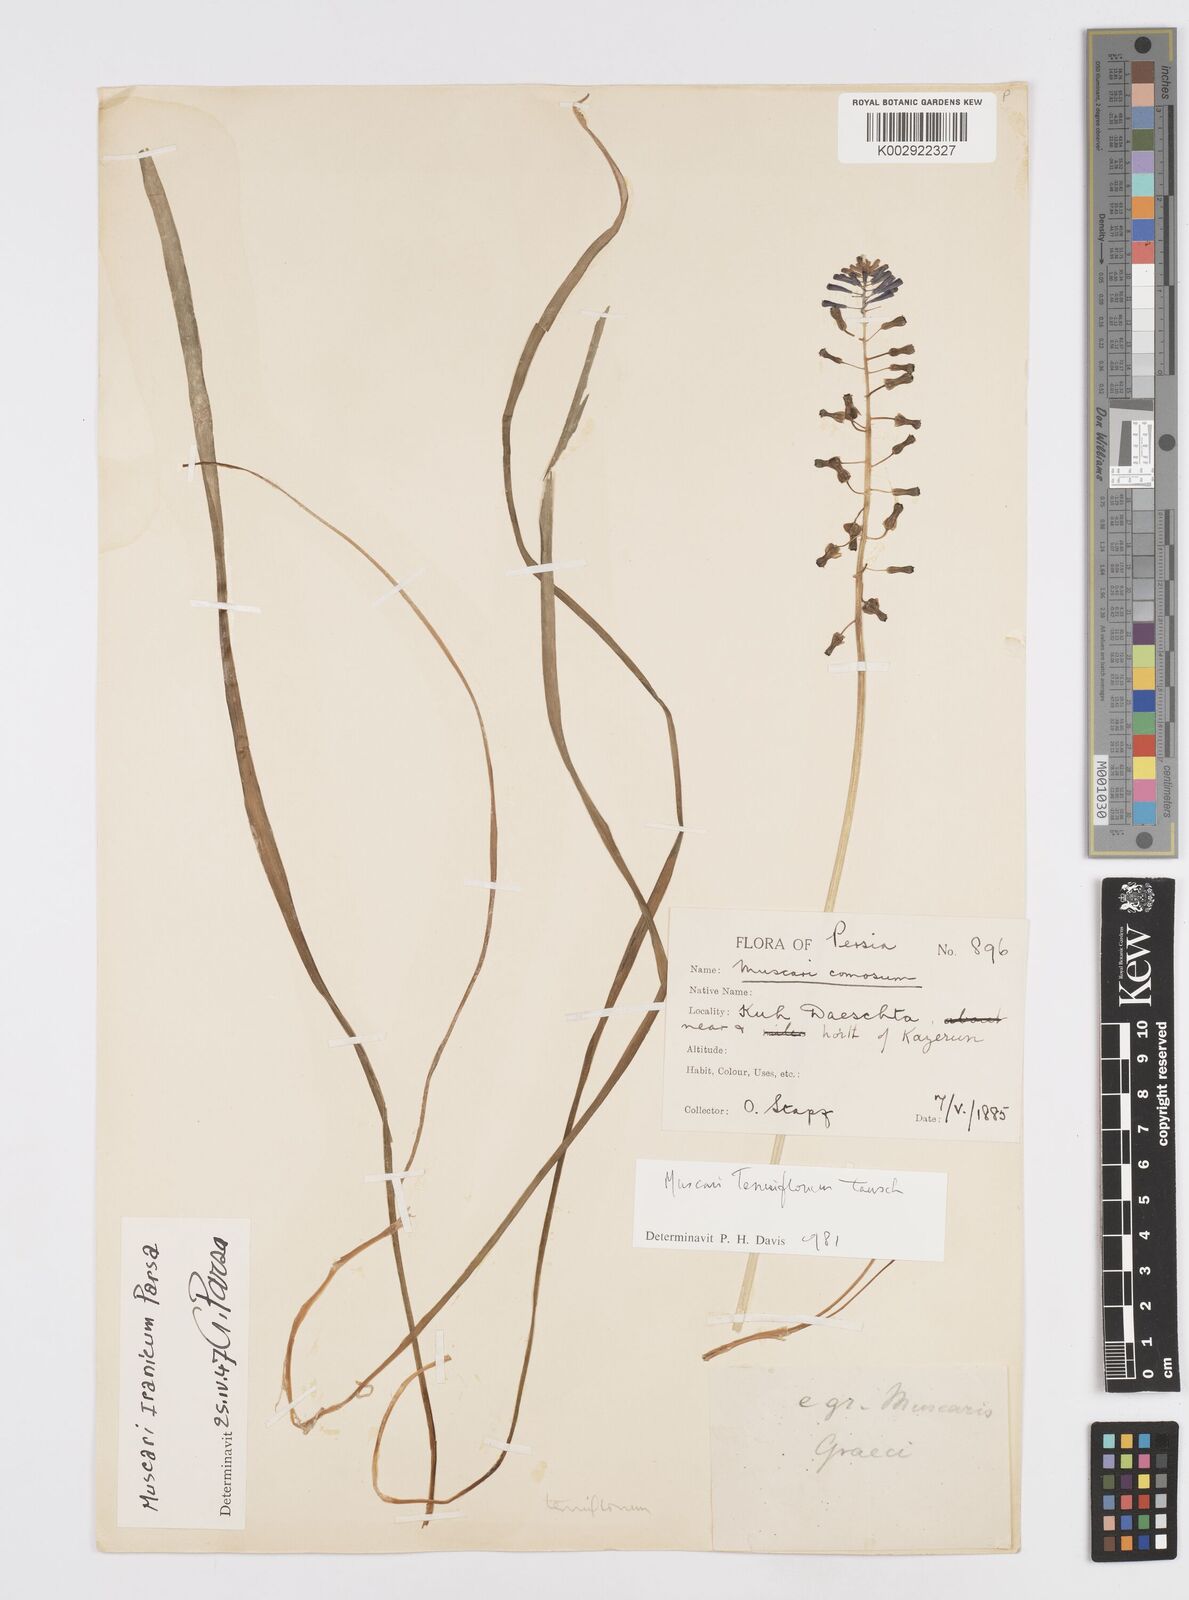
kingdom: Animalia
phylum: Mollusca
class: Cephalopoda
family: Neocomitidae
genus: Leopoldia
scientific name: Leopoldia
